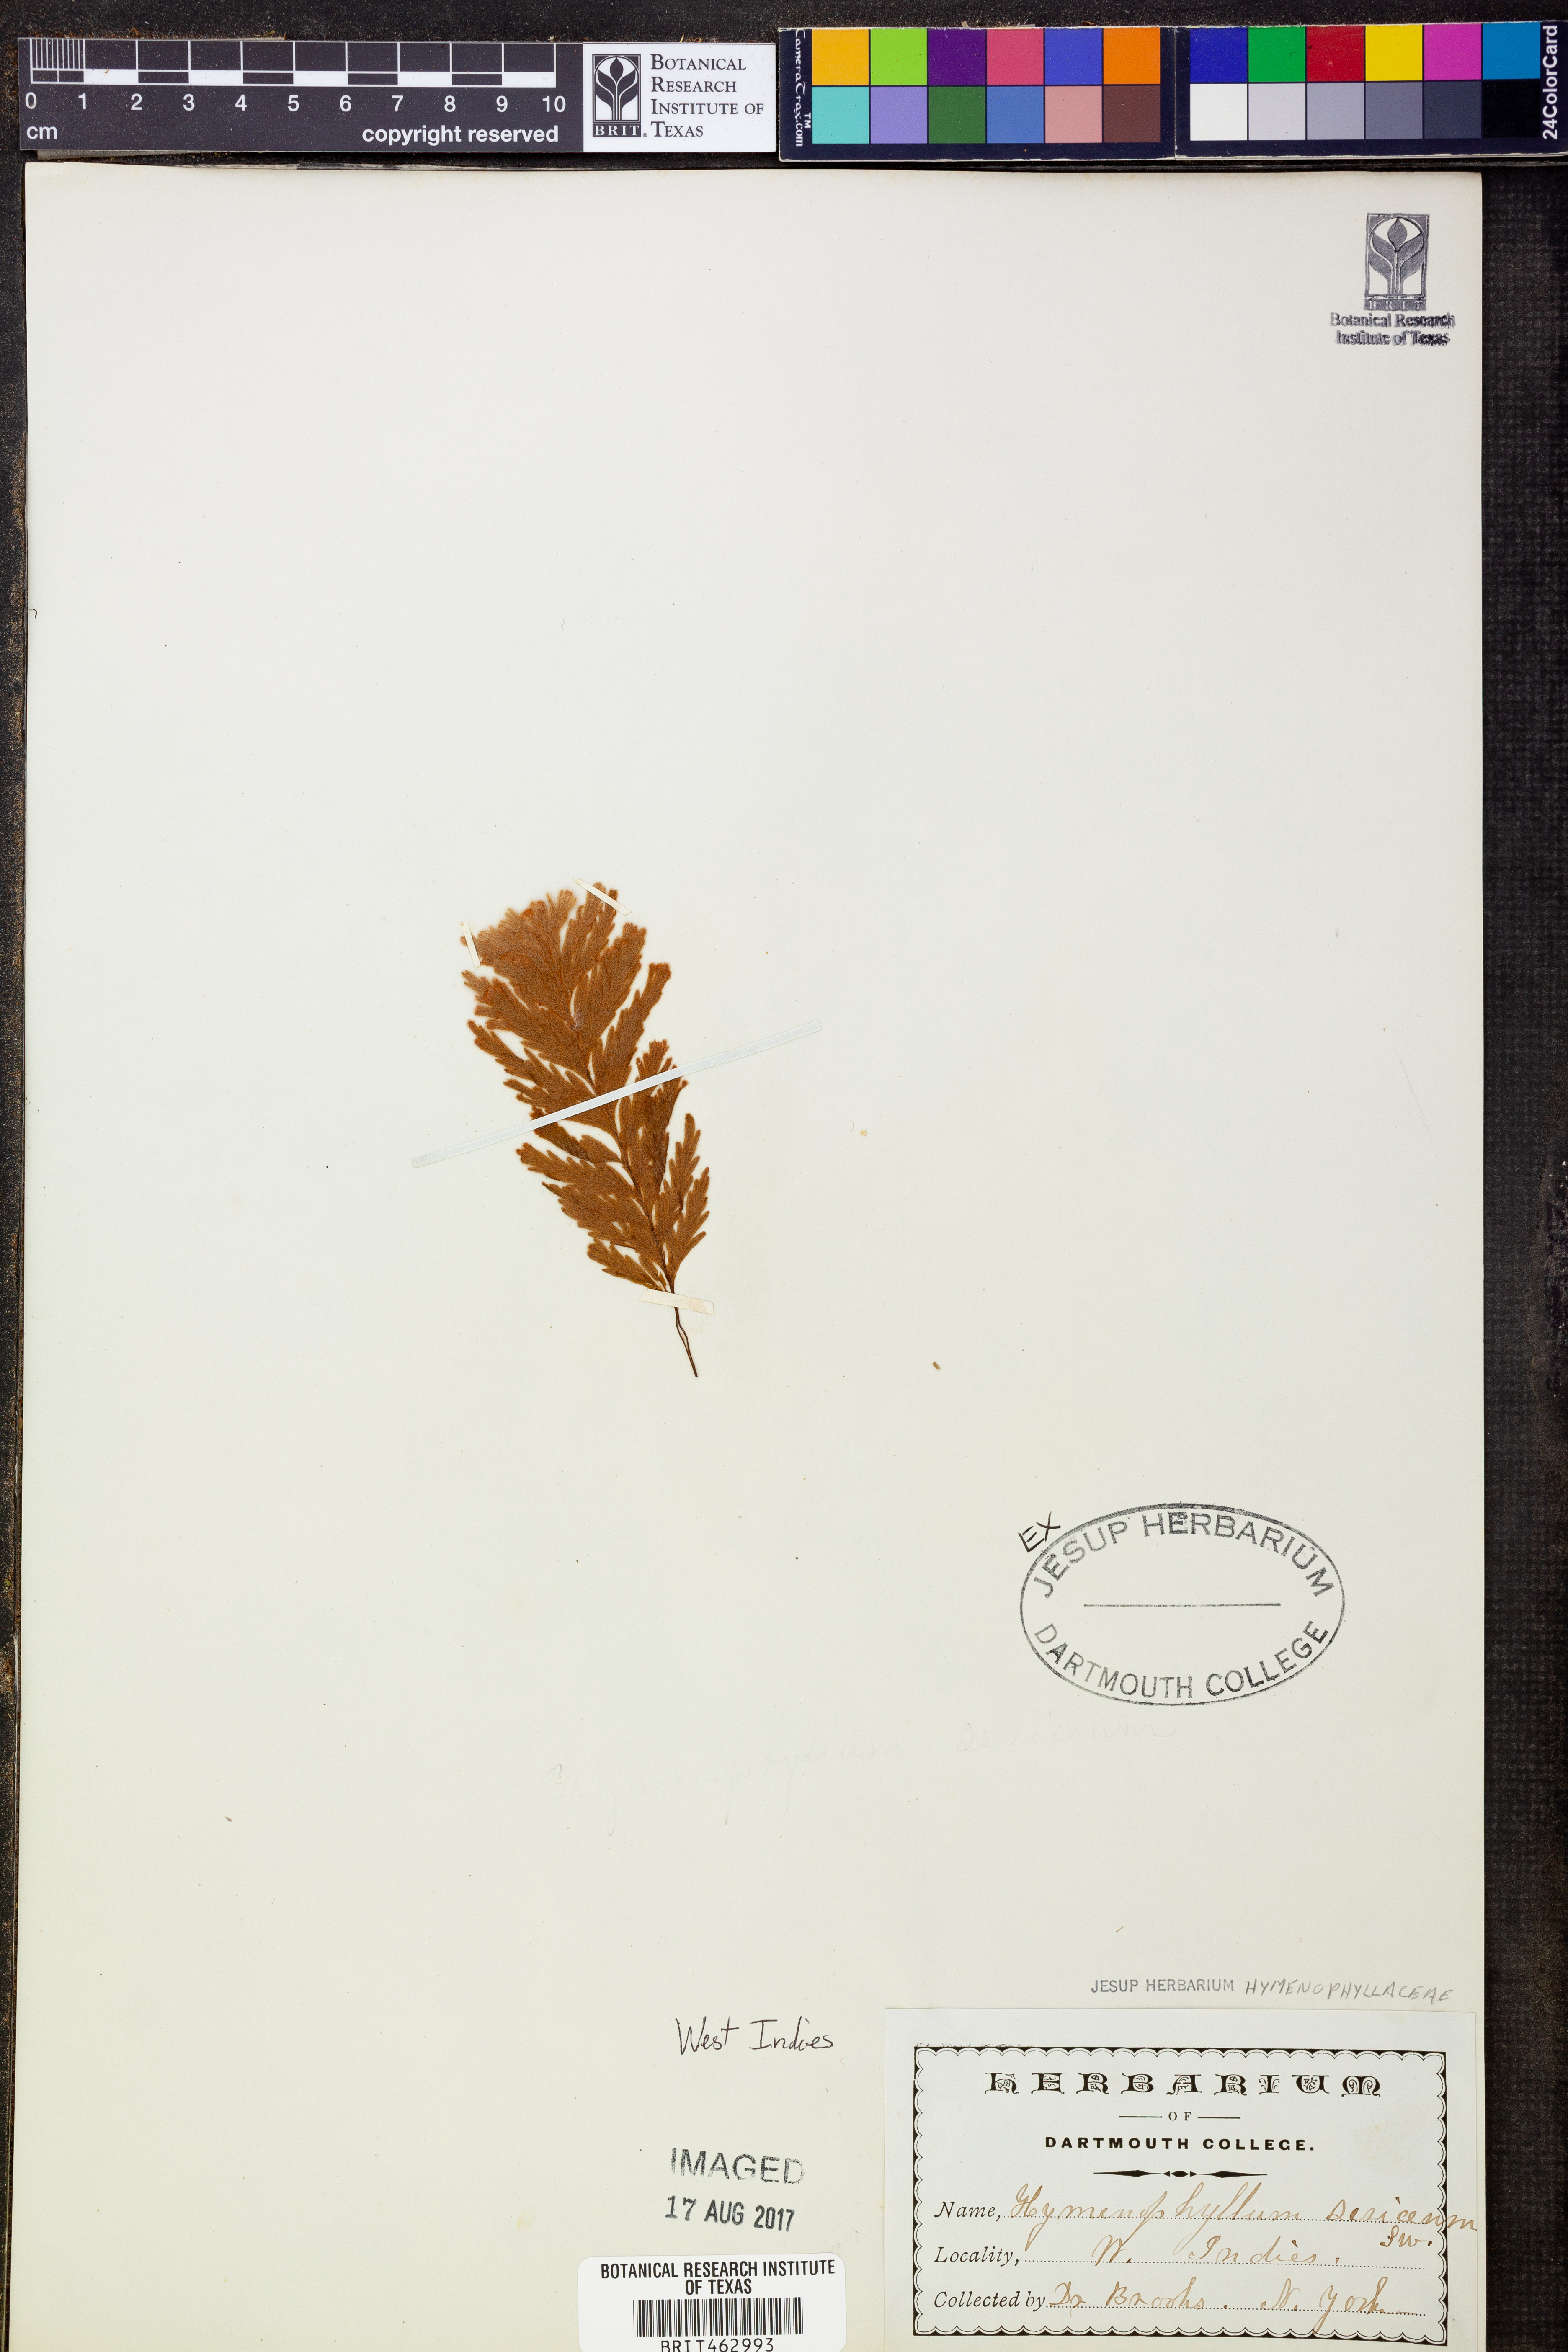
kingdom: Plantae
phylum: Tracheophyta
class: Polypodiopsida
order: Hymenophyllales
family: Hymenophyllaceae
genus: Hymenophyllum
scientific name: Hymenophyllum sericeum
